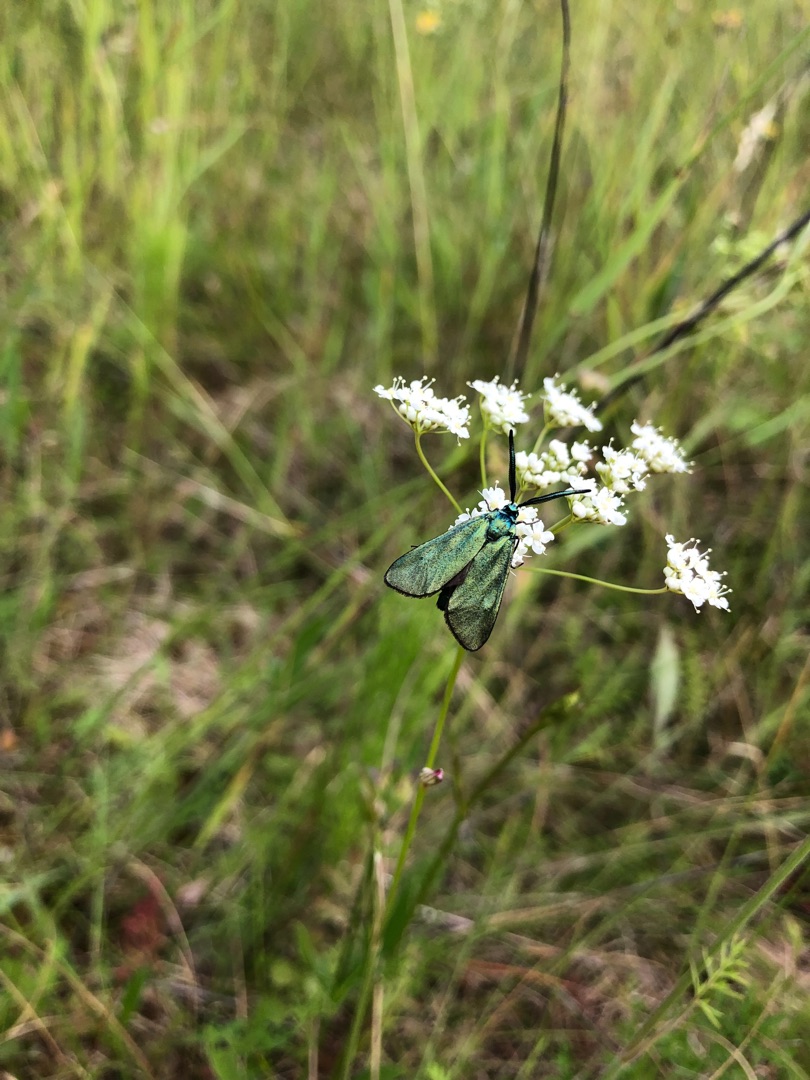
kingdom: Animalia
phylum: Arthropoda
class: Insecta
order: Lepidoptera
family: Zygaenidae
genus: Adscita
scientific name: Adscita statices
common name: Metalvinge
